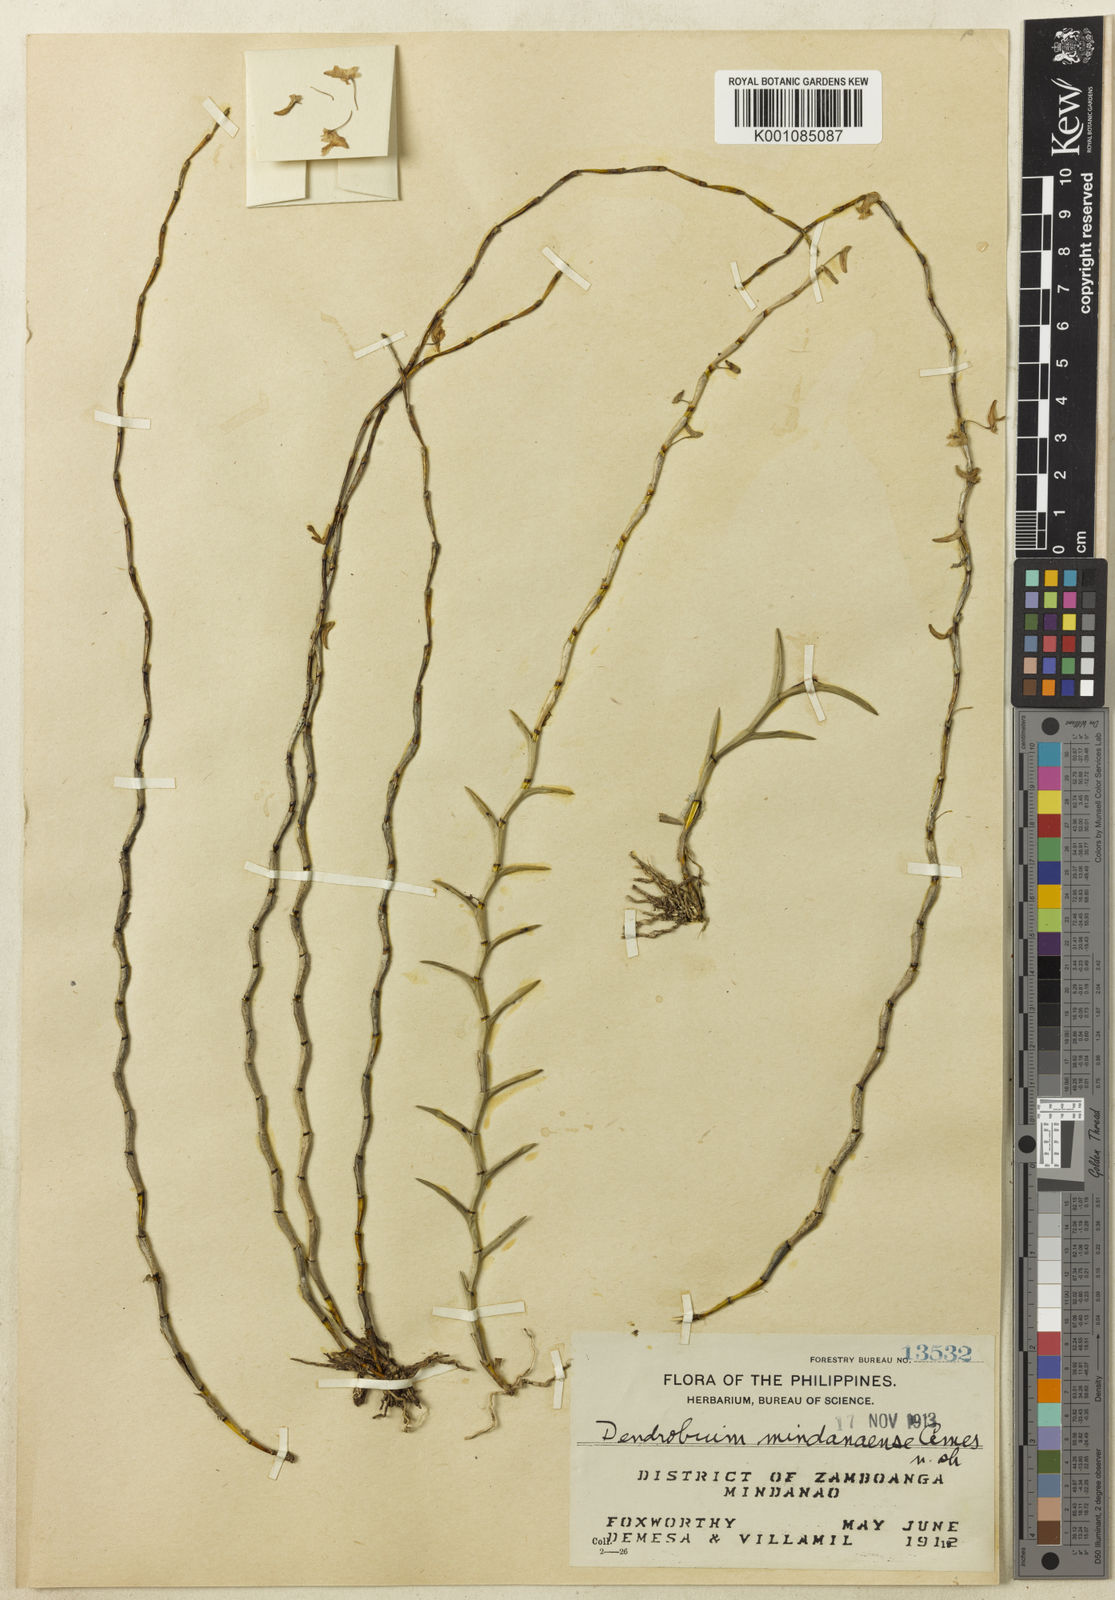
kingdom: Plantae
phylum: Tracheophyta
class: Liliopsida
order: Asparagales
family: Orchidaceae
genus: Dendrobium
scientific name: Dendrobium mindanaense
